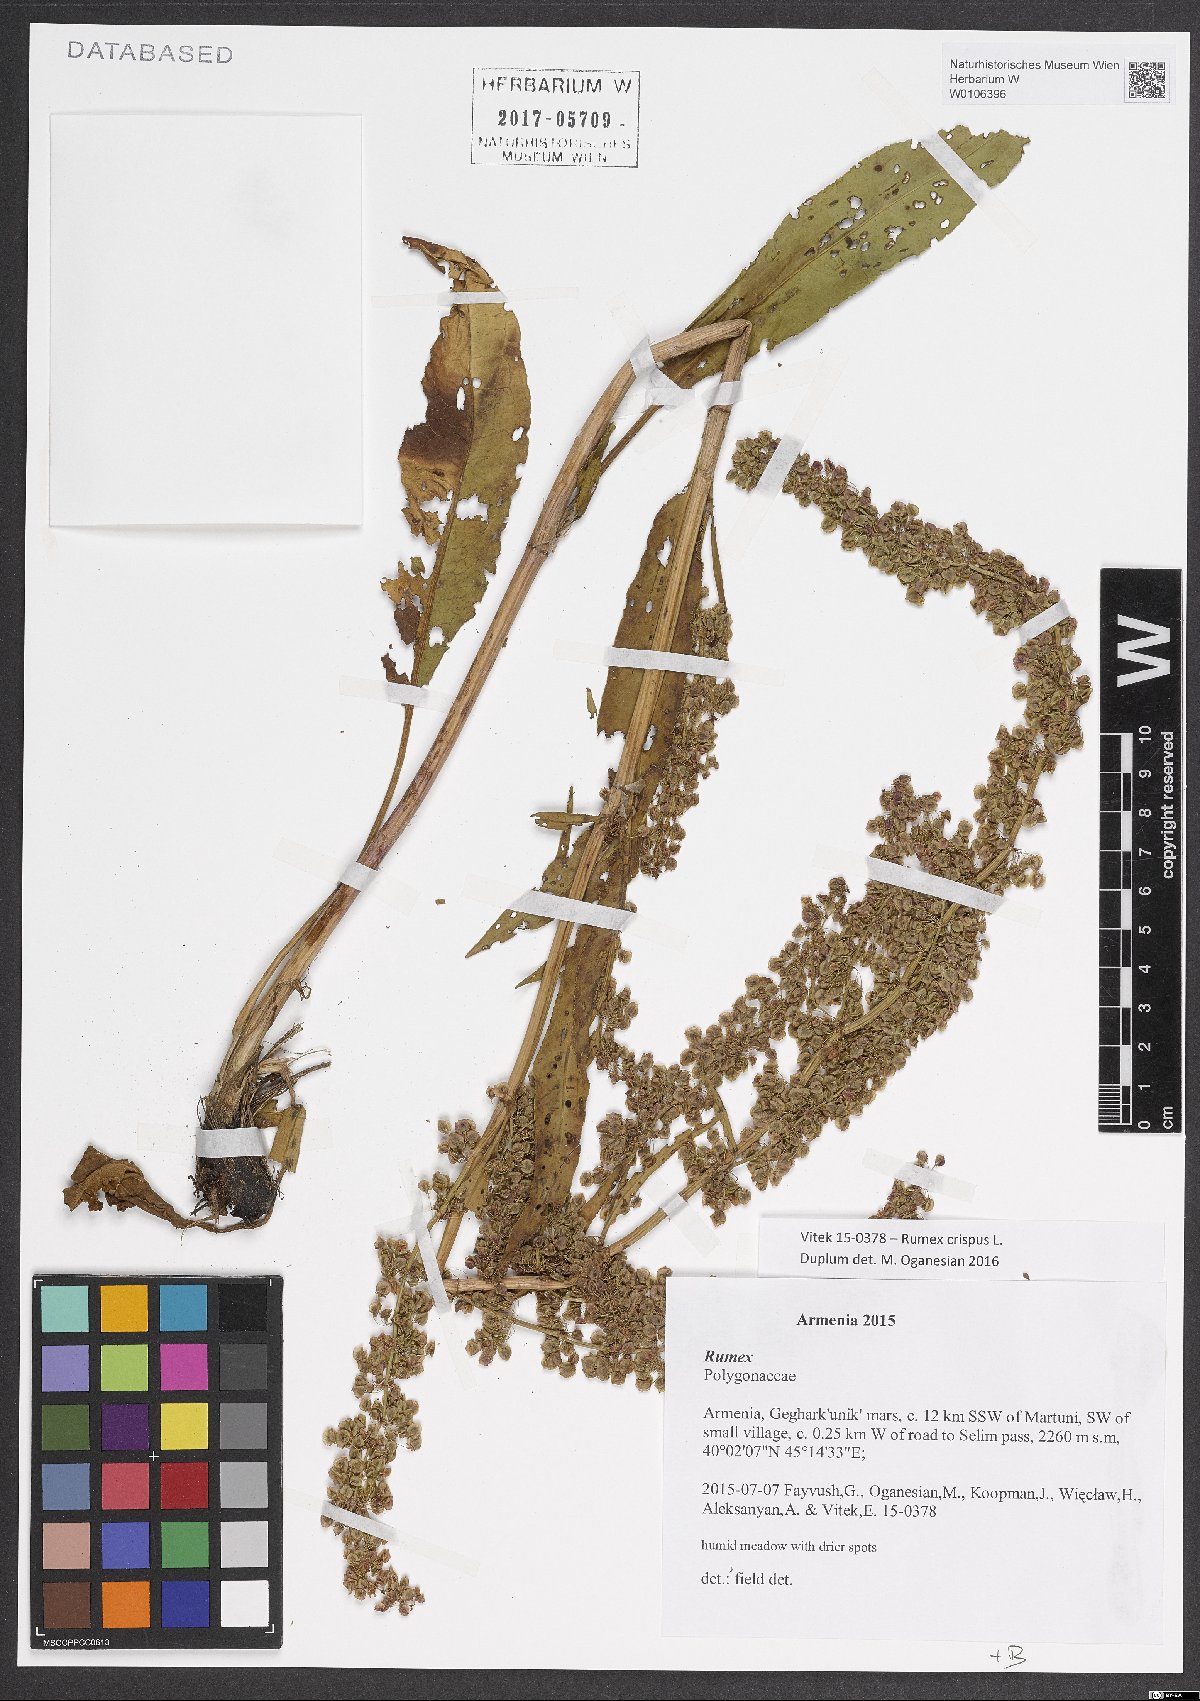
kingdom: Plantae
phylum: Tracheophyta
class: Magnoliopsida
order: Caryophyllales
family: Polygonaceae
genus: Rumex
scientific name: Rumex crispus
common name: Curled dock
